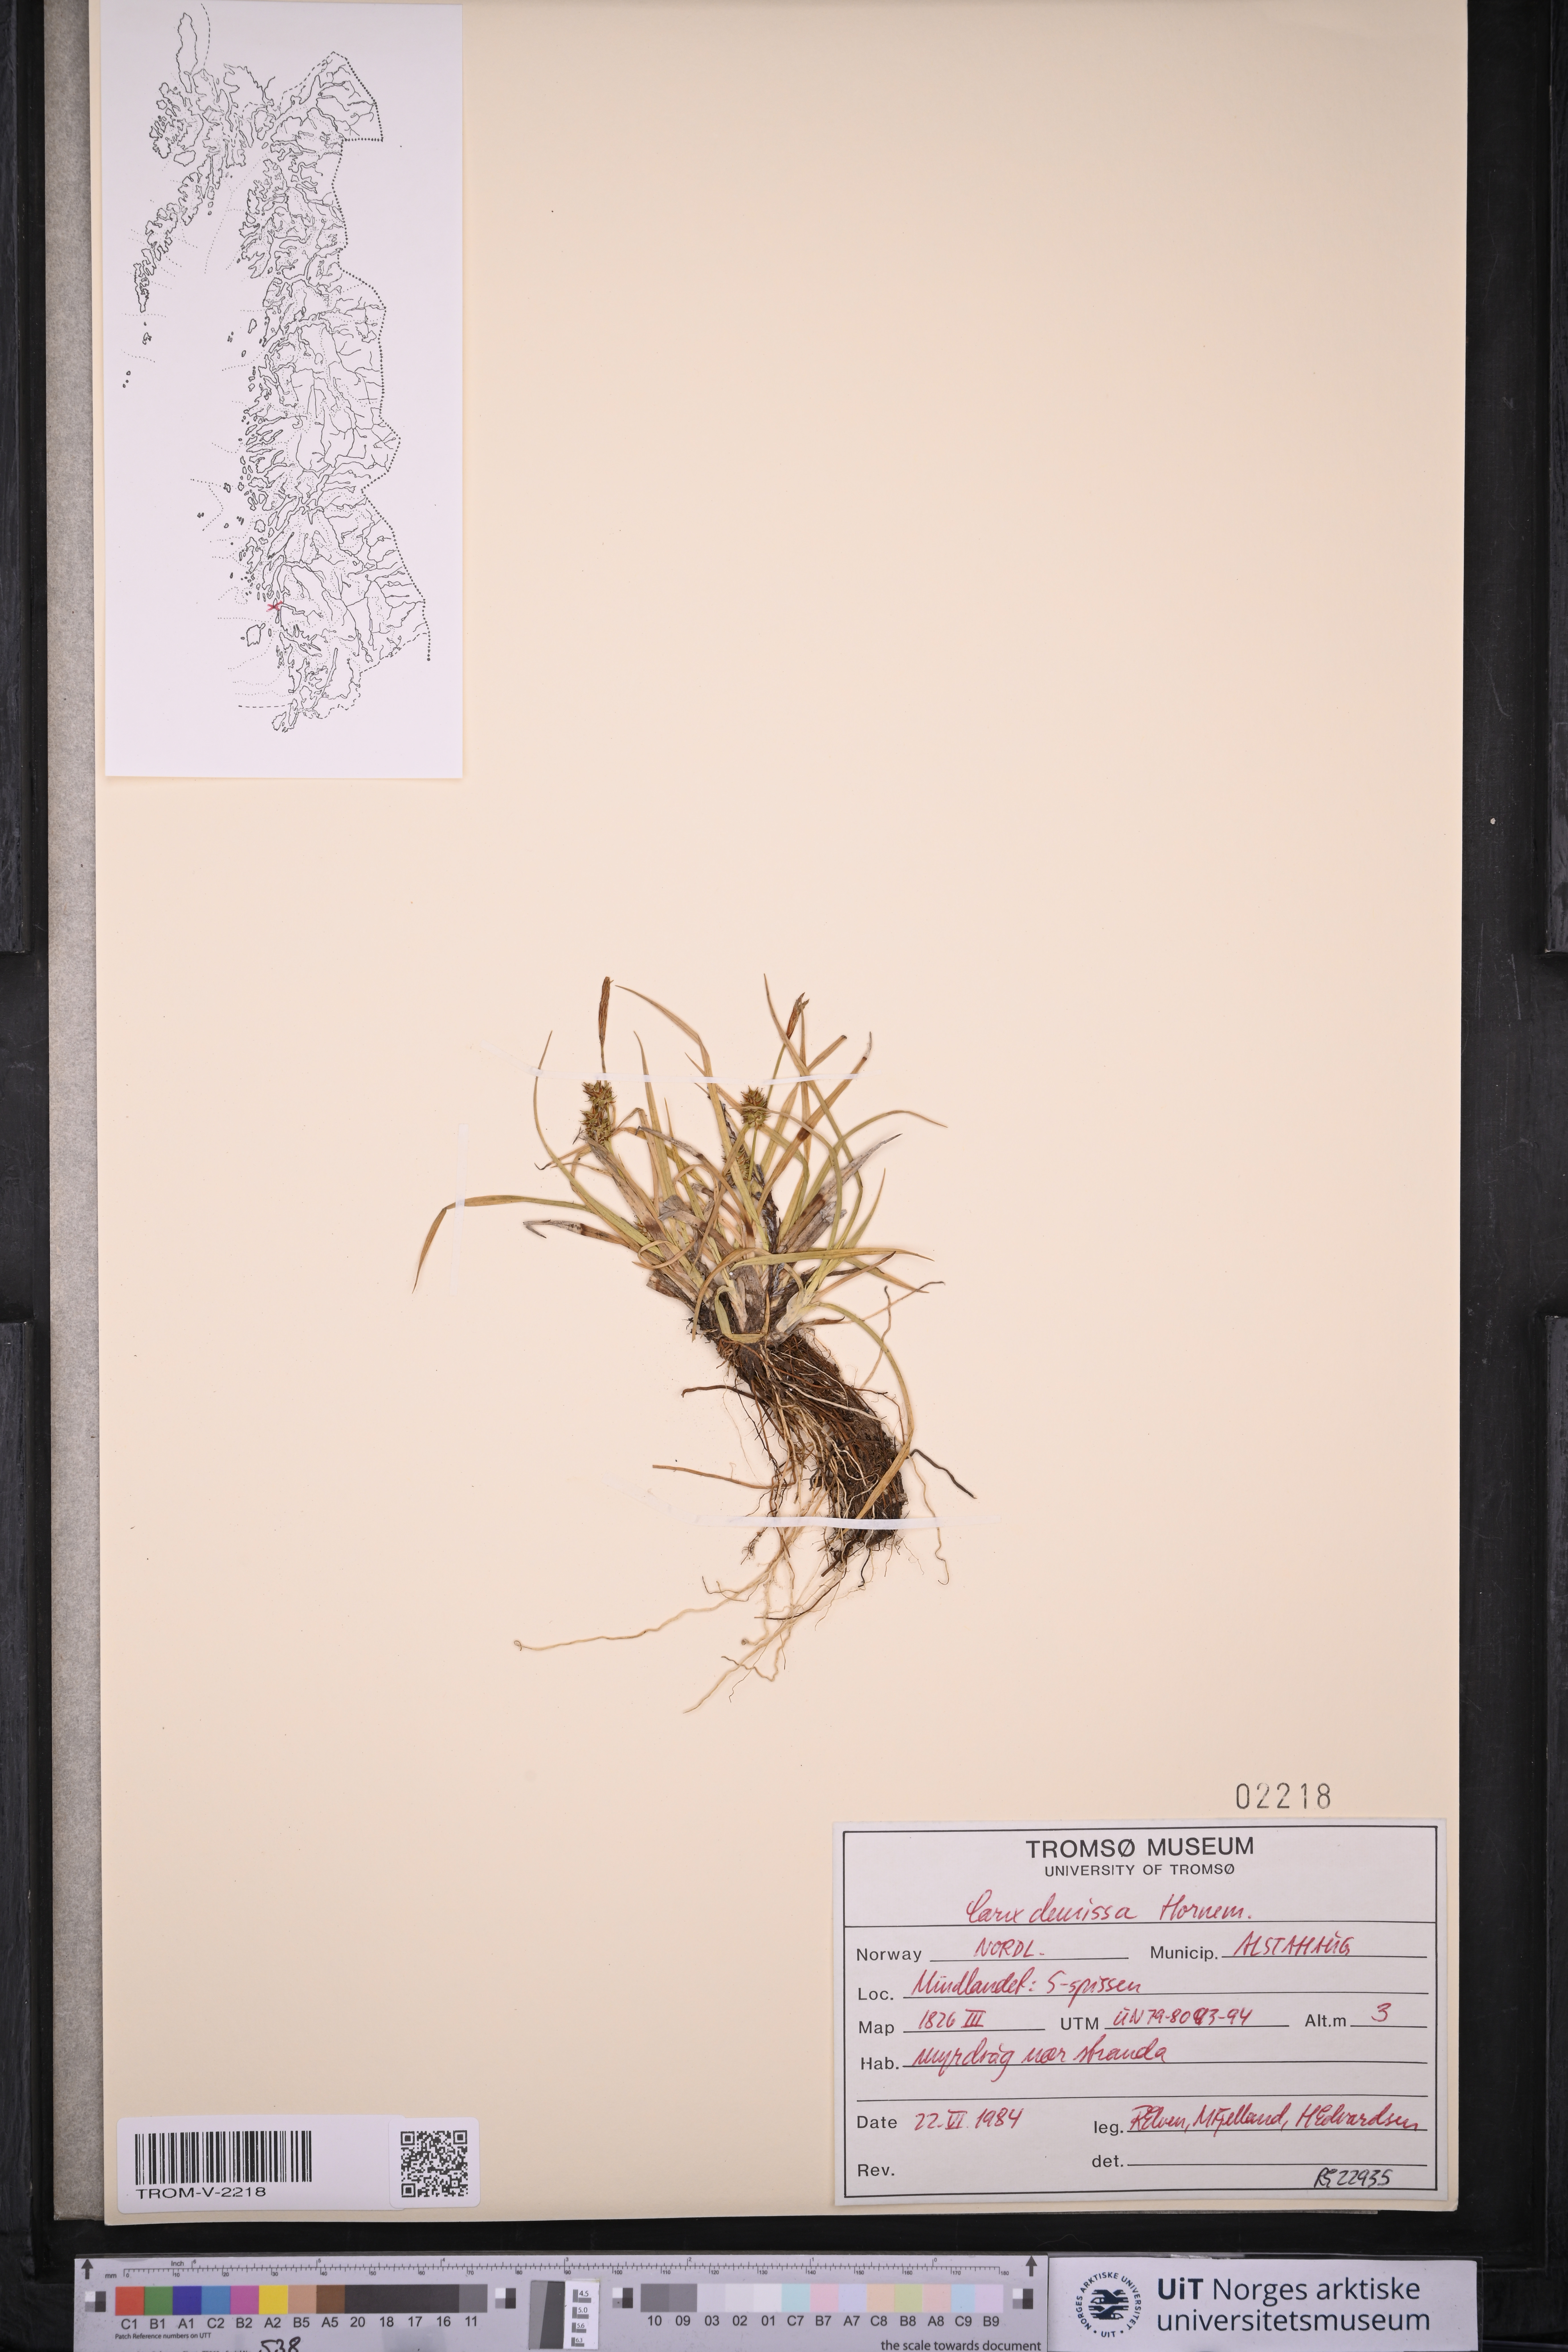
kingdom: Plantae
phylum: Tracheophyta
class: Liliopsida
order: Poales
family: Cyperaceae
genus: Carex
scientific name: Carex demissa
